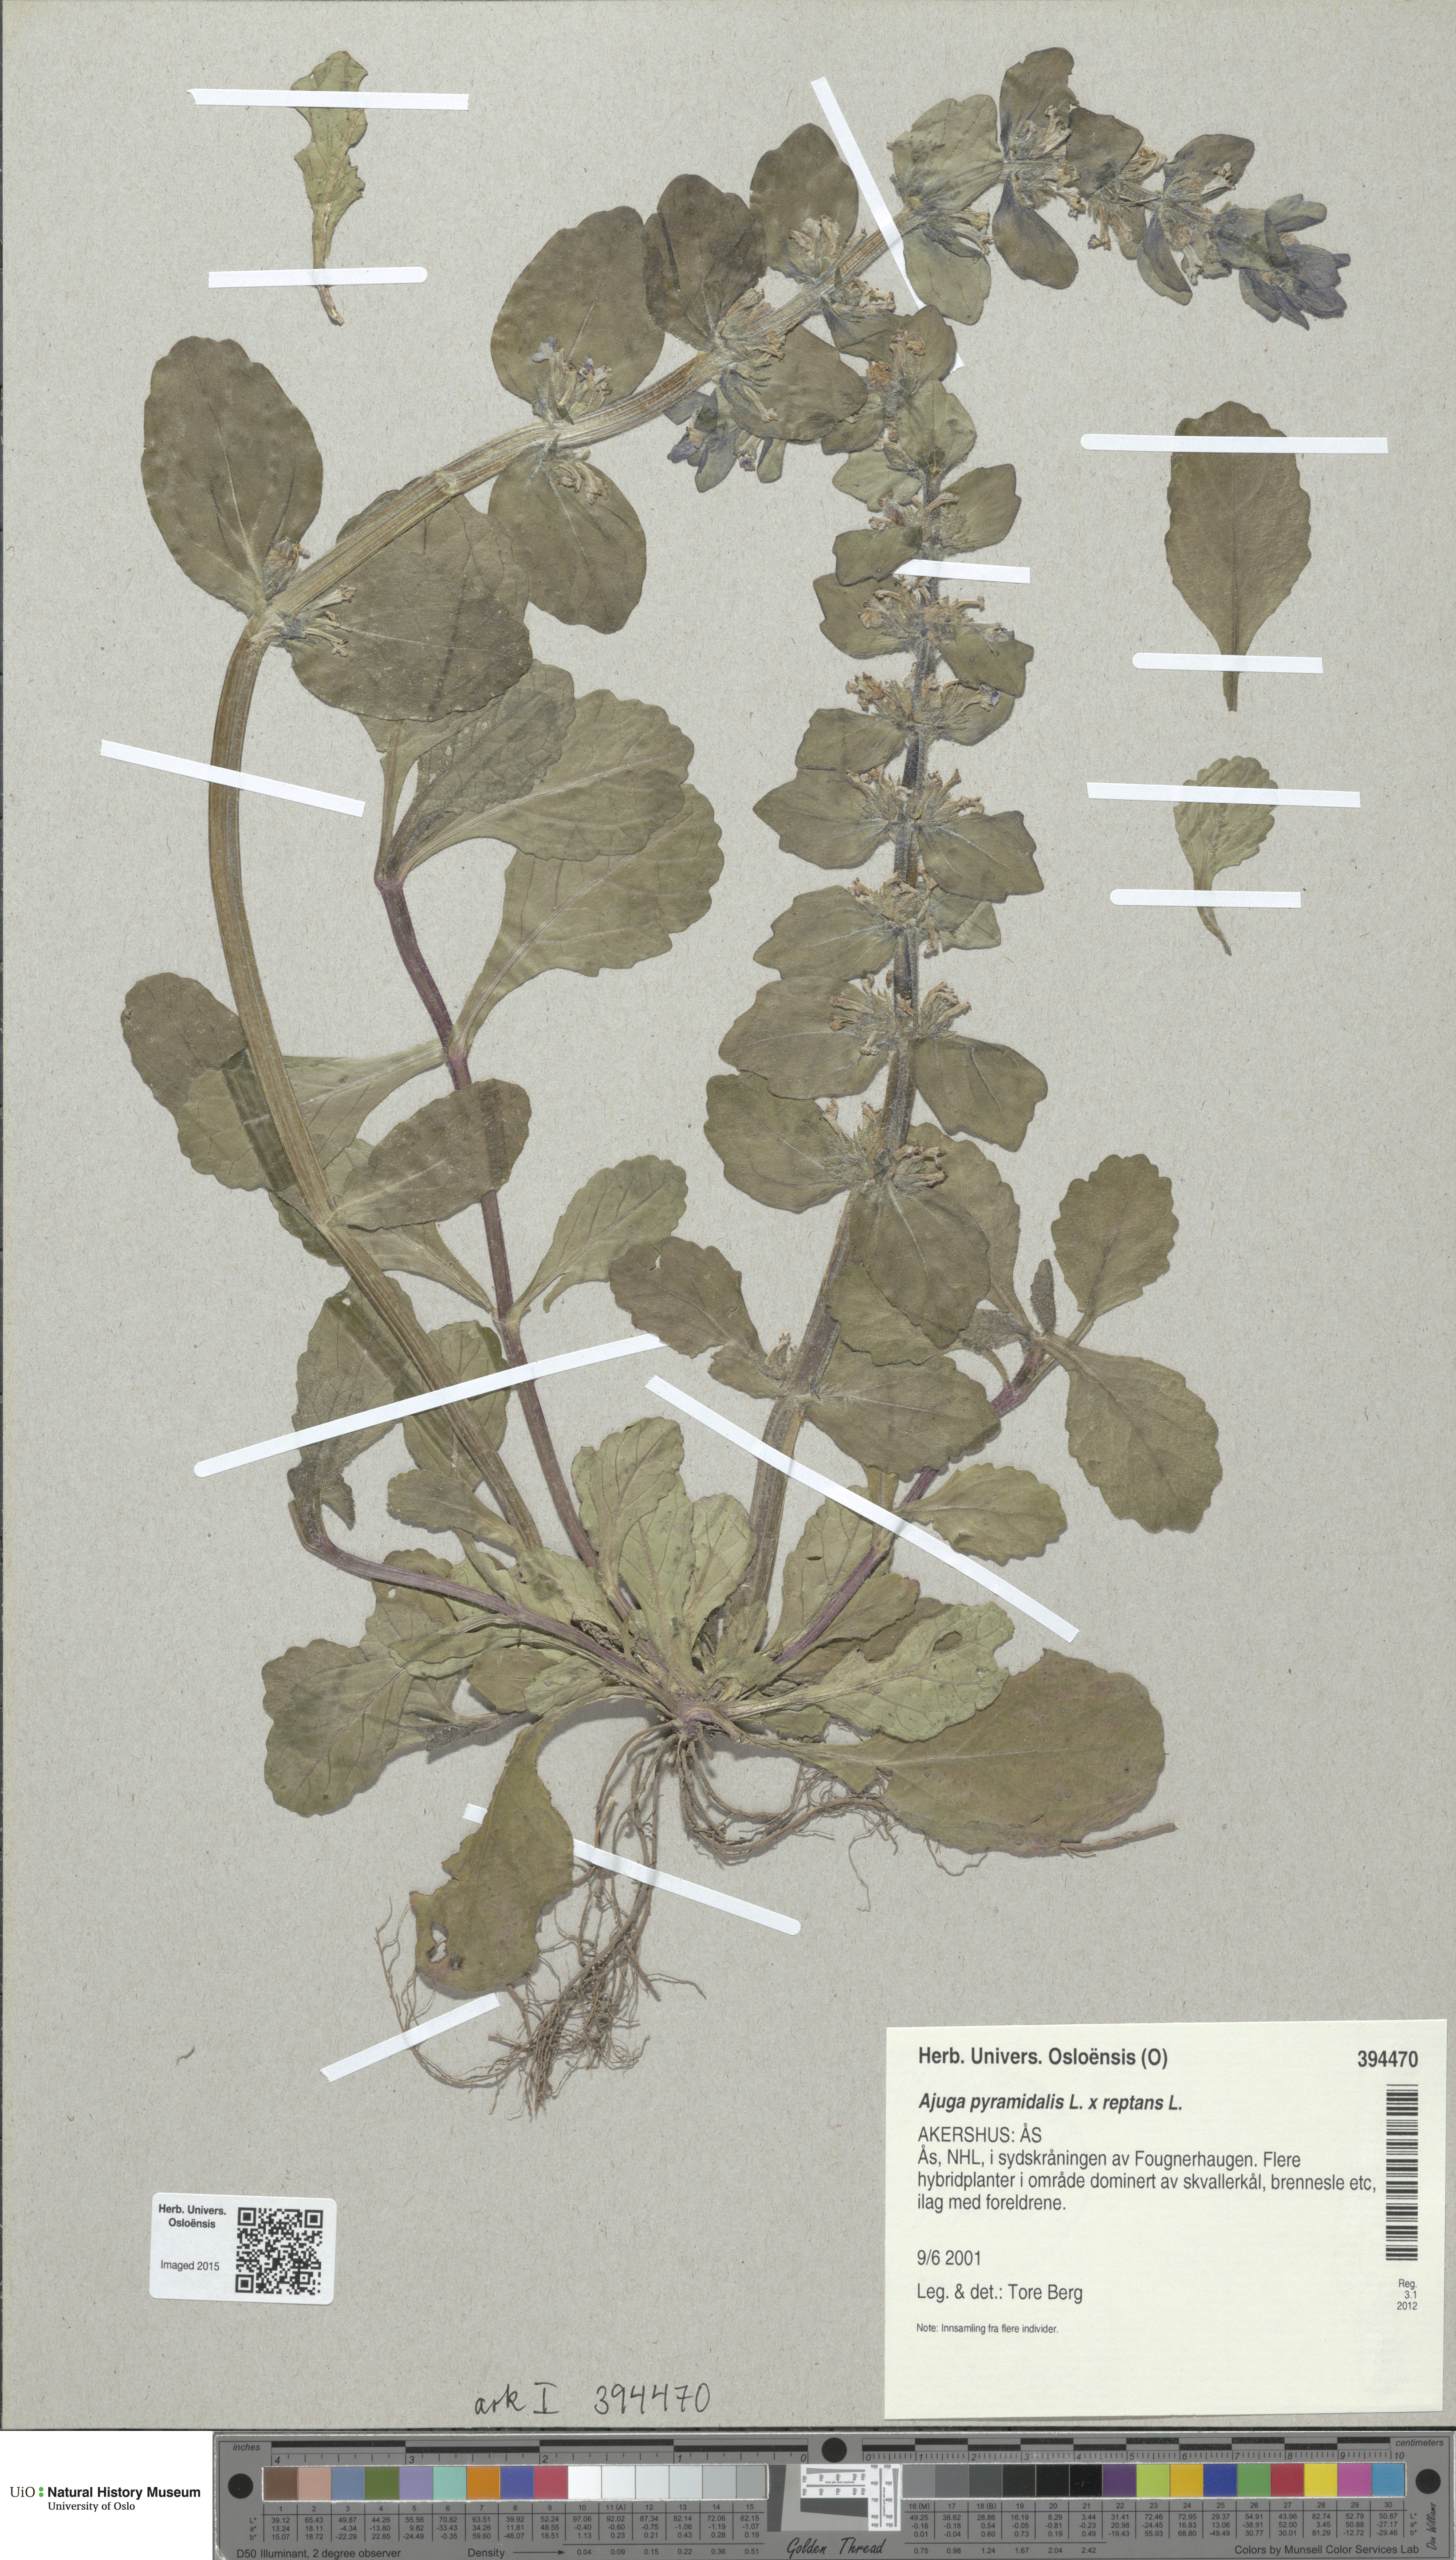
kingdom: Plantae
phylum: Tracheophyta
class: Magnoliopsida
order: Lamiales
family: Lamiaceae
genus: Ajuga
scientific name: Ajuga
